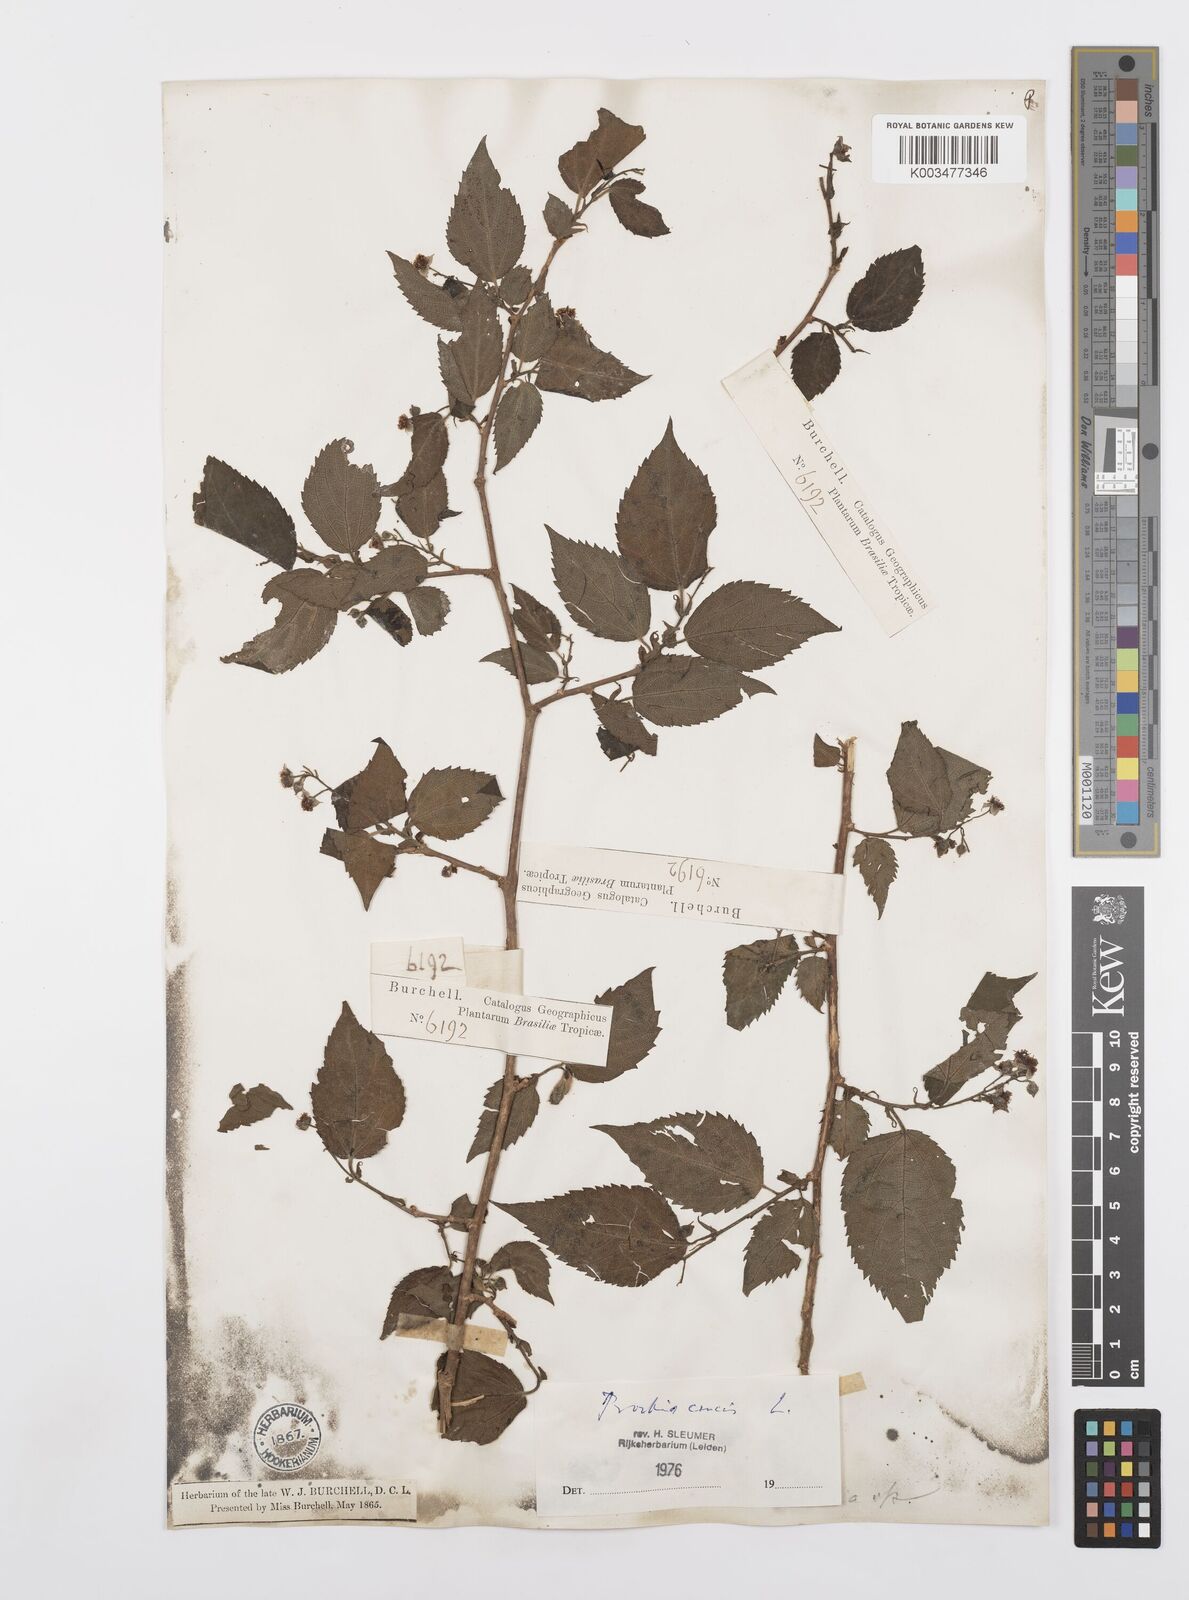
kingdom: Plantae
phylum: Tracheophyta
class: Magnoliopsida
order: Malpighiales
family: Salicaceae
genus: Prockia
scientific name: Prockia crucis
